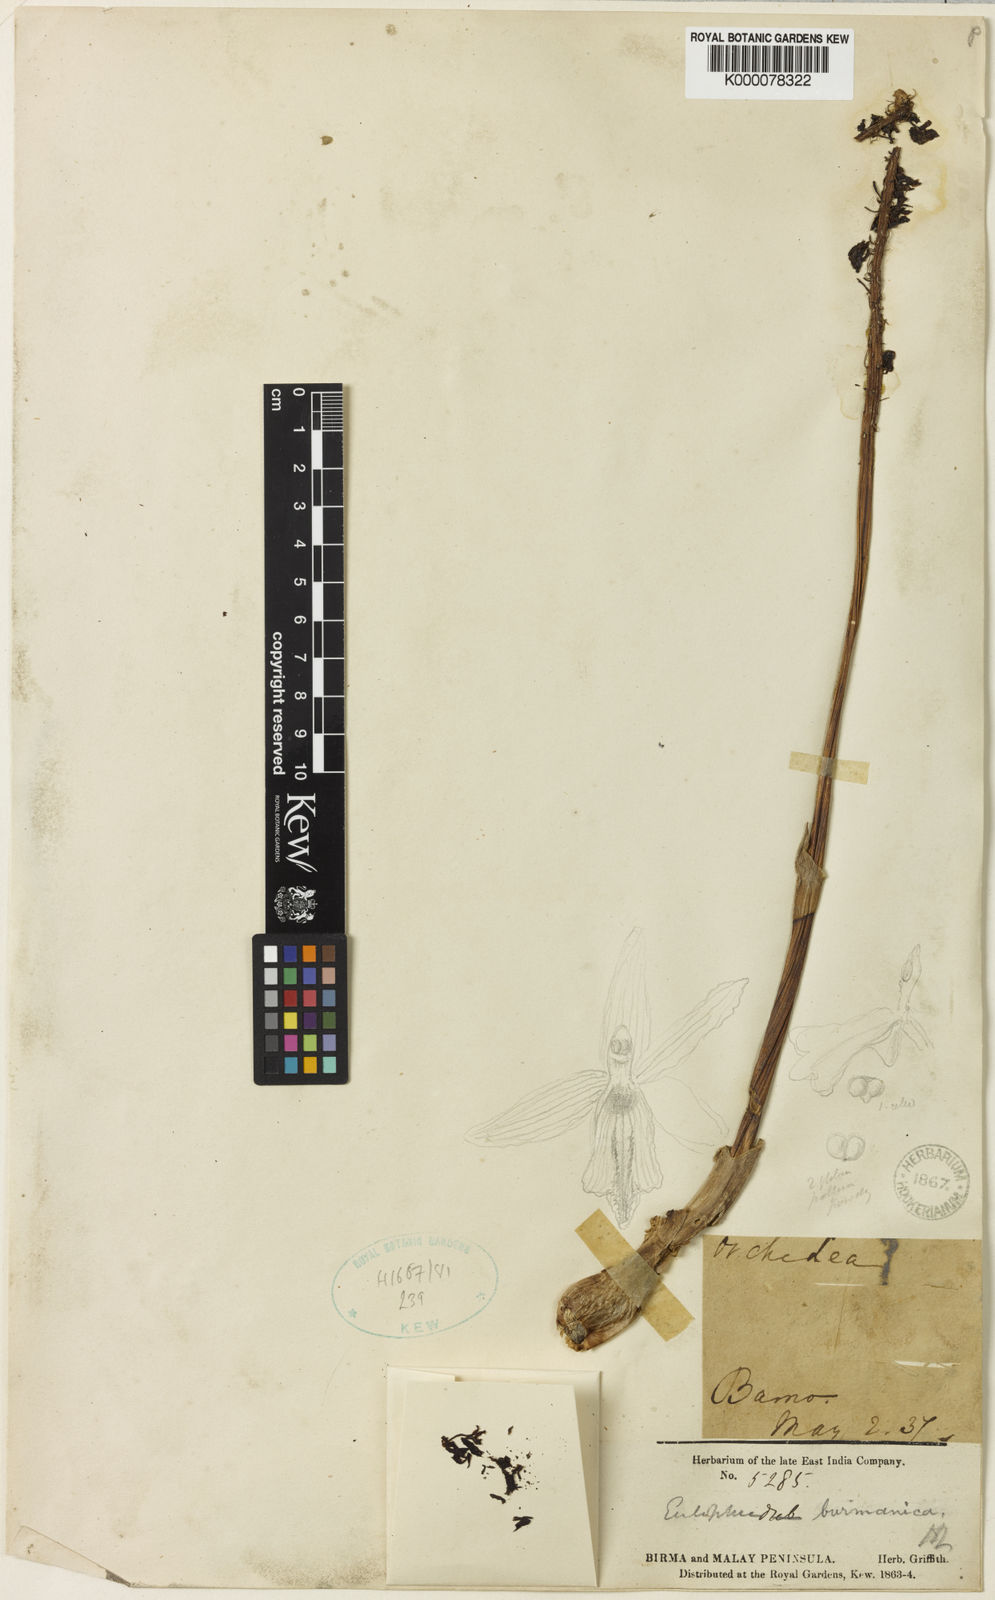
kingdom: Plantae
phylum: Tracheophyta
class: Liliopsida
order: Asparagales
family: Orchidaceae
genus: Eulophia
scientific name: Eulophia macrobulbon
